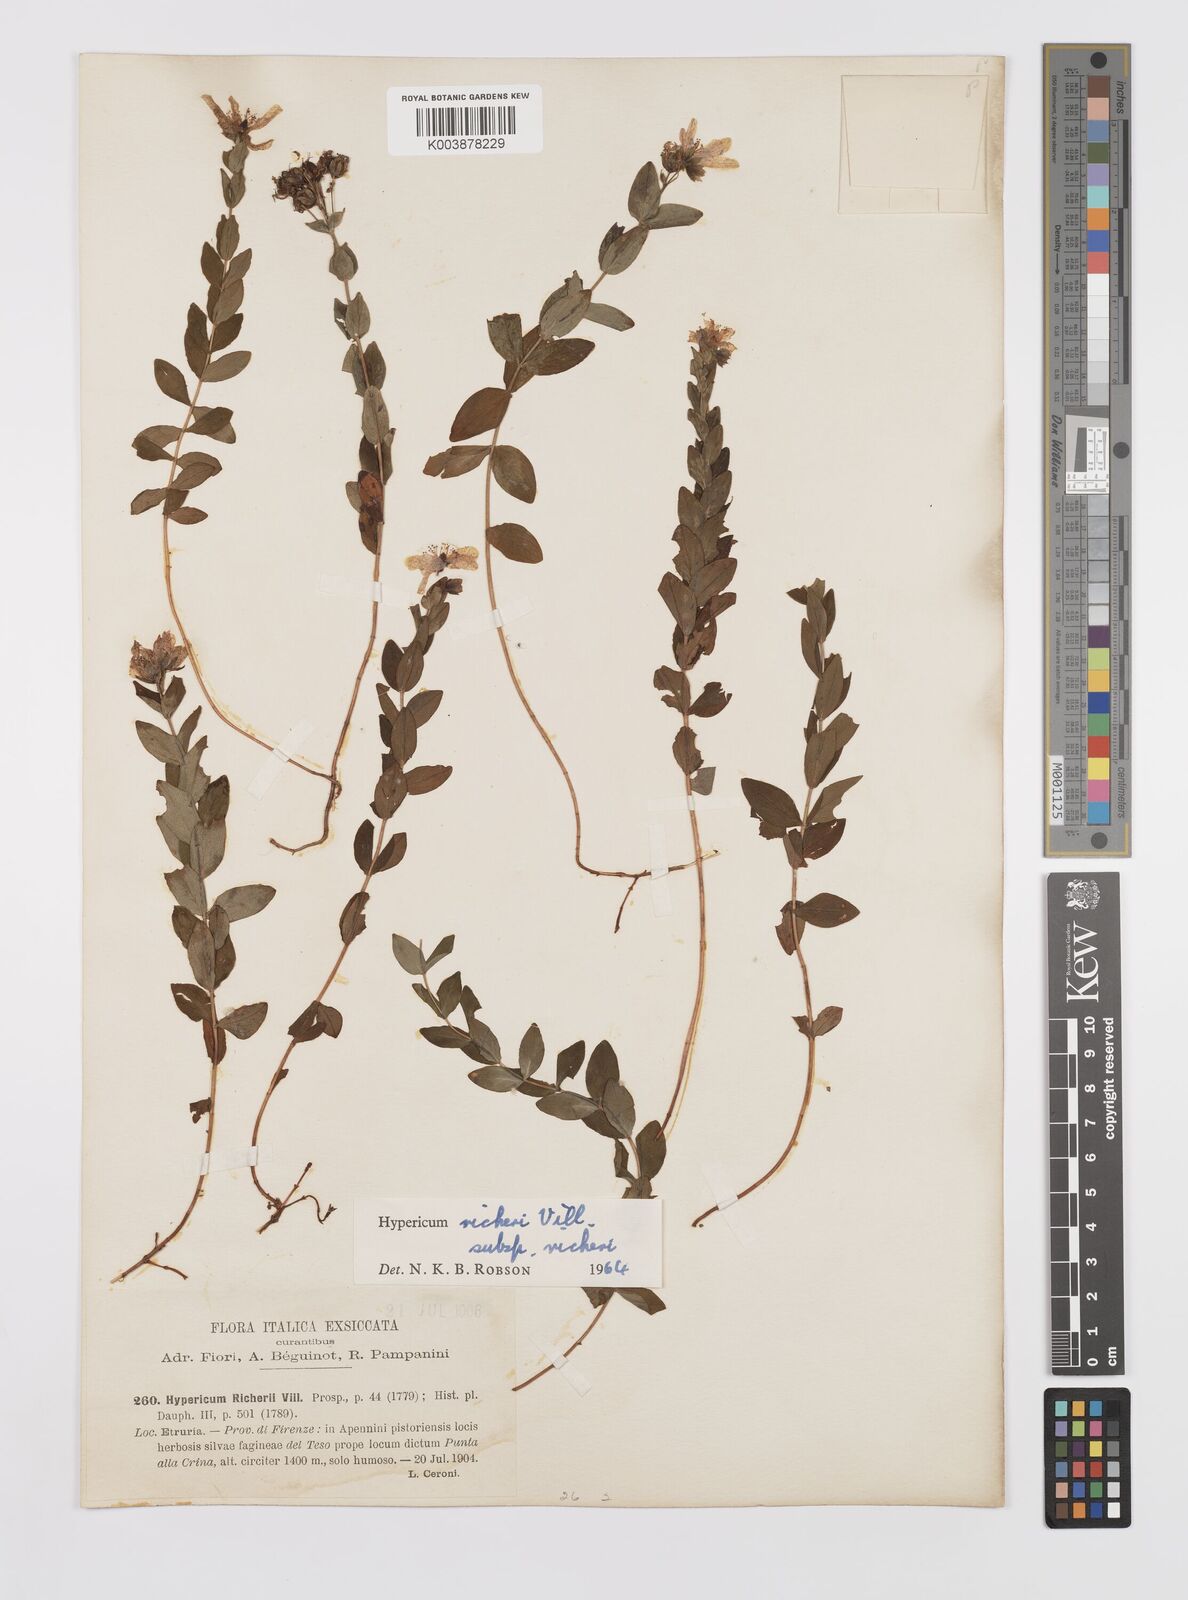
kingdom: Plantae
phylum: Tracheophyta
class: Magnoliopsida
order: Malpighiales
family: Hypericaceae
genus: Hypericum
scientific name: Hypericum richeri
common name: Alpine st john's-wort
